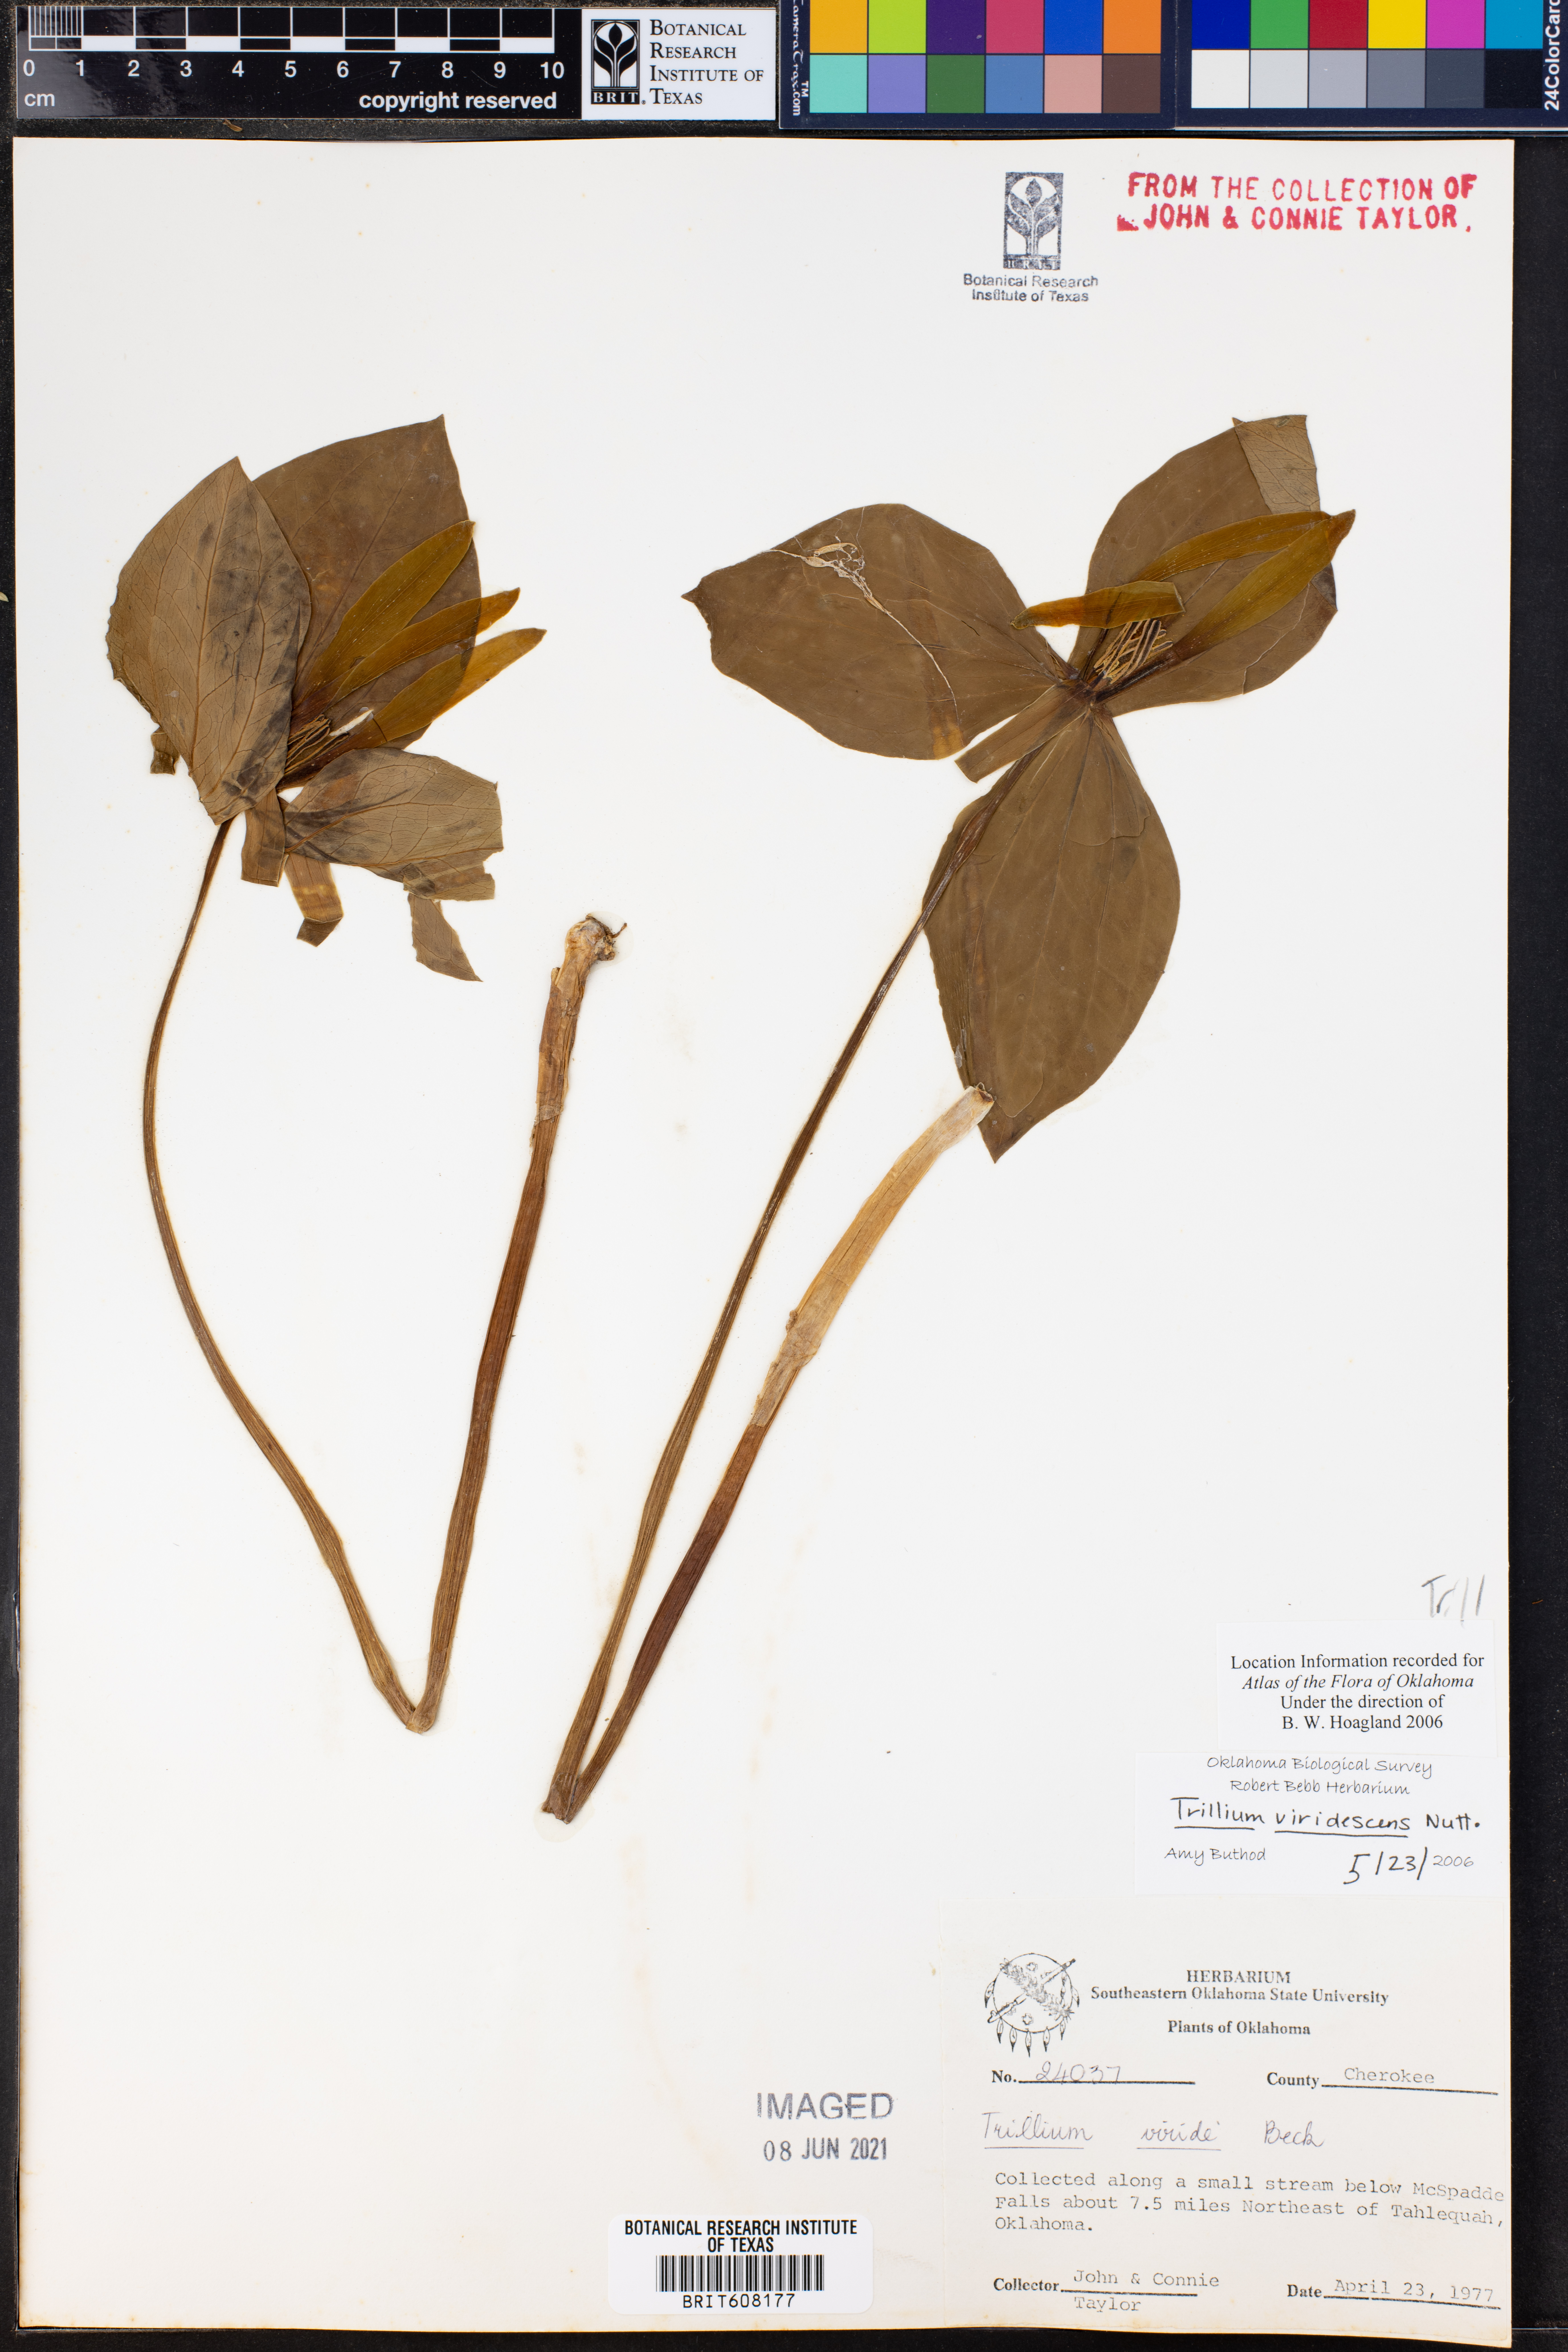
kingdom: Plantae
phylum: Tracheophyta
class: Liliopsida
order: Liliales
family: Melanthiaceae
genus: Trillium
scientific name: Trillium viridescens
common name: Ozark green trillium
